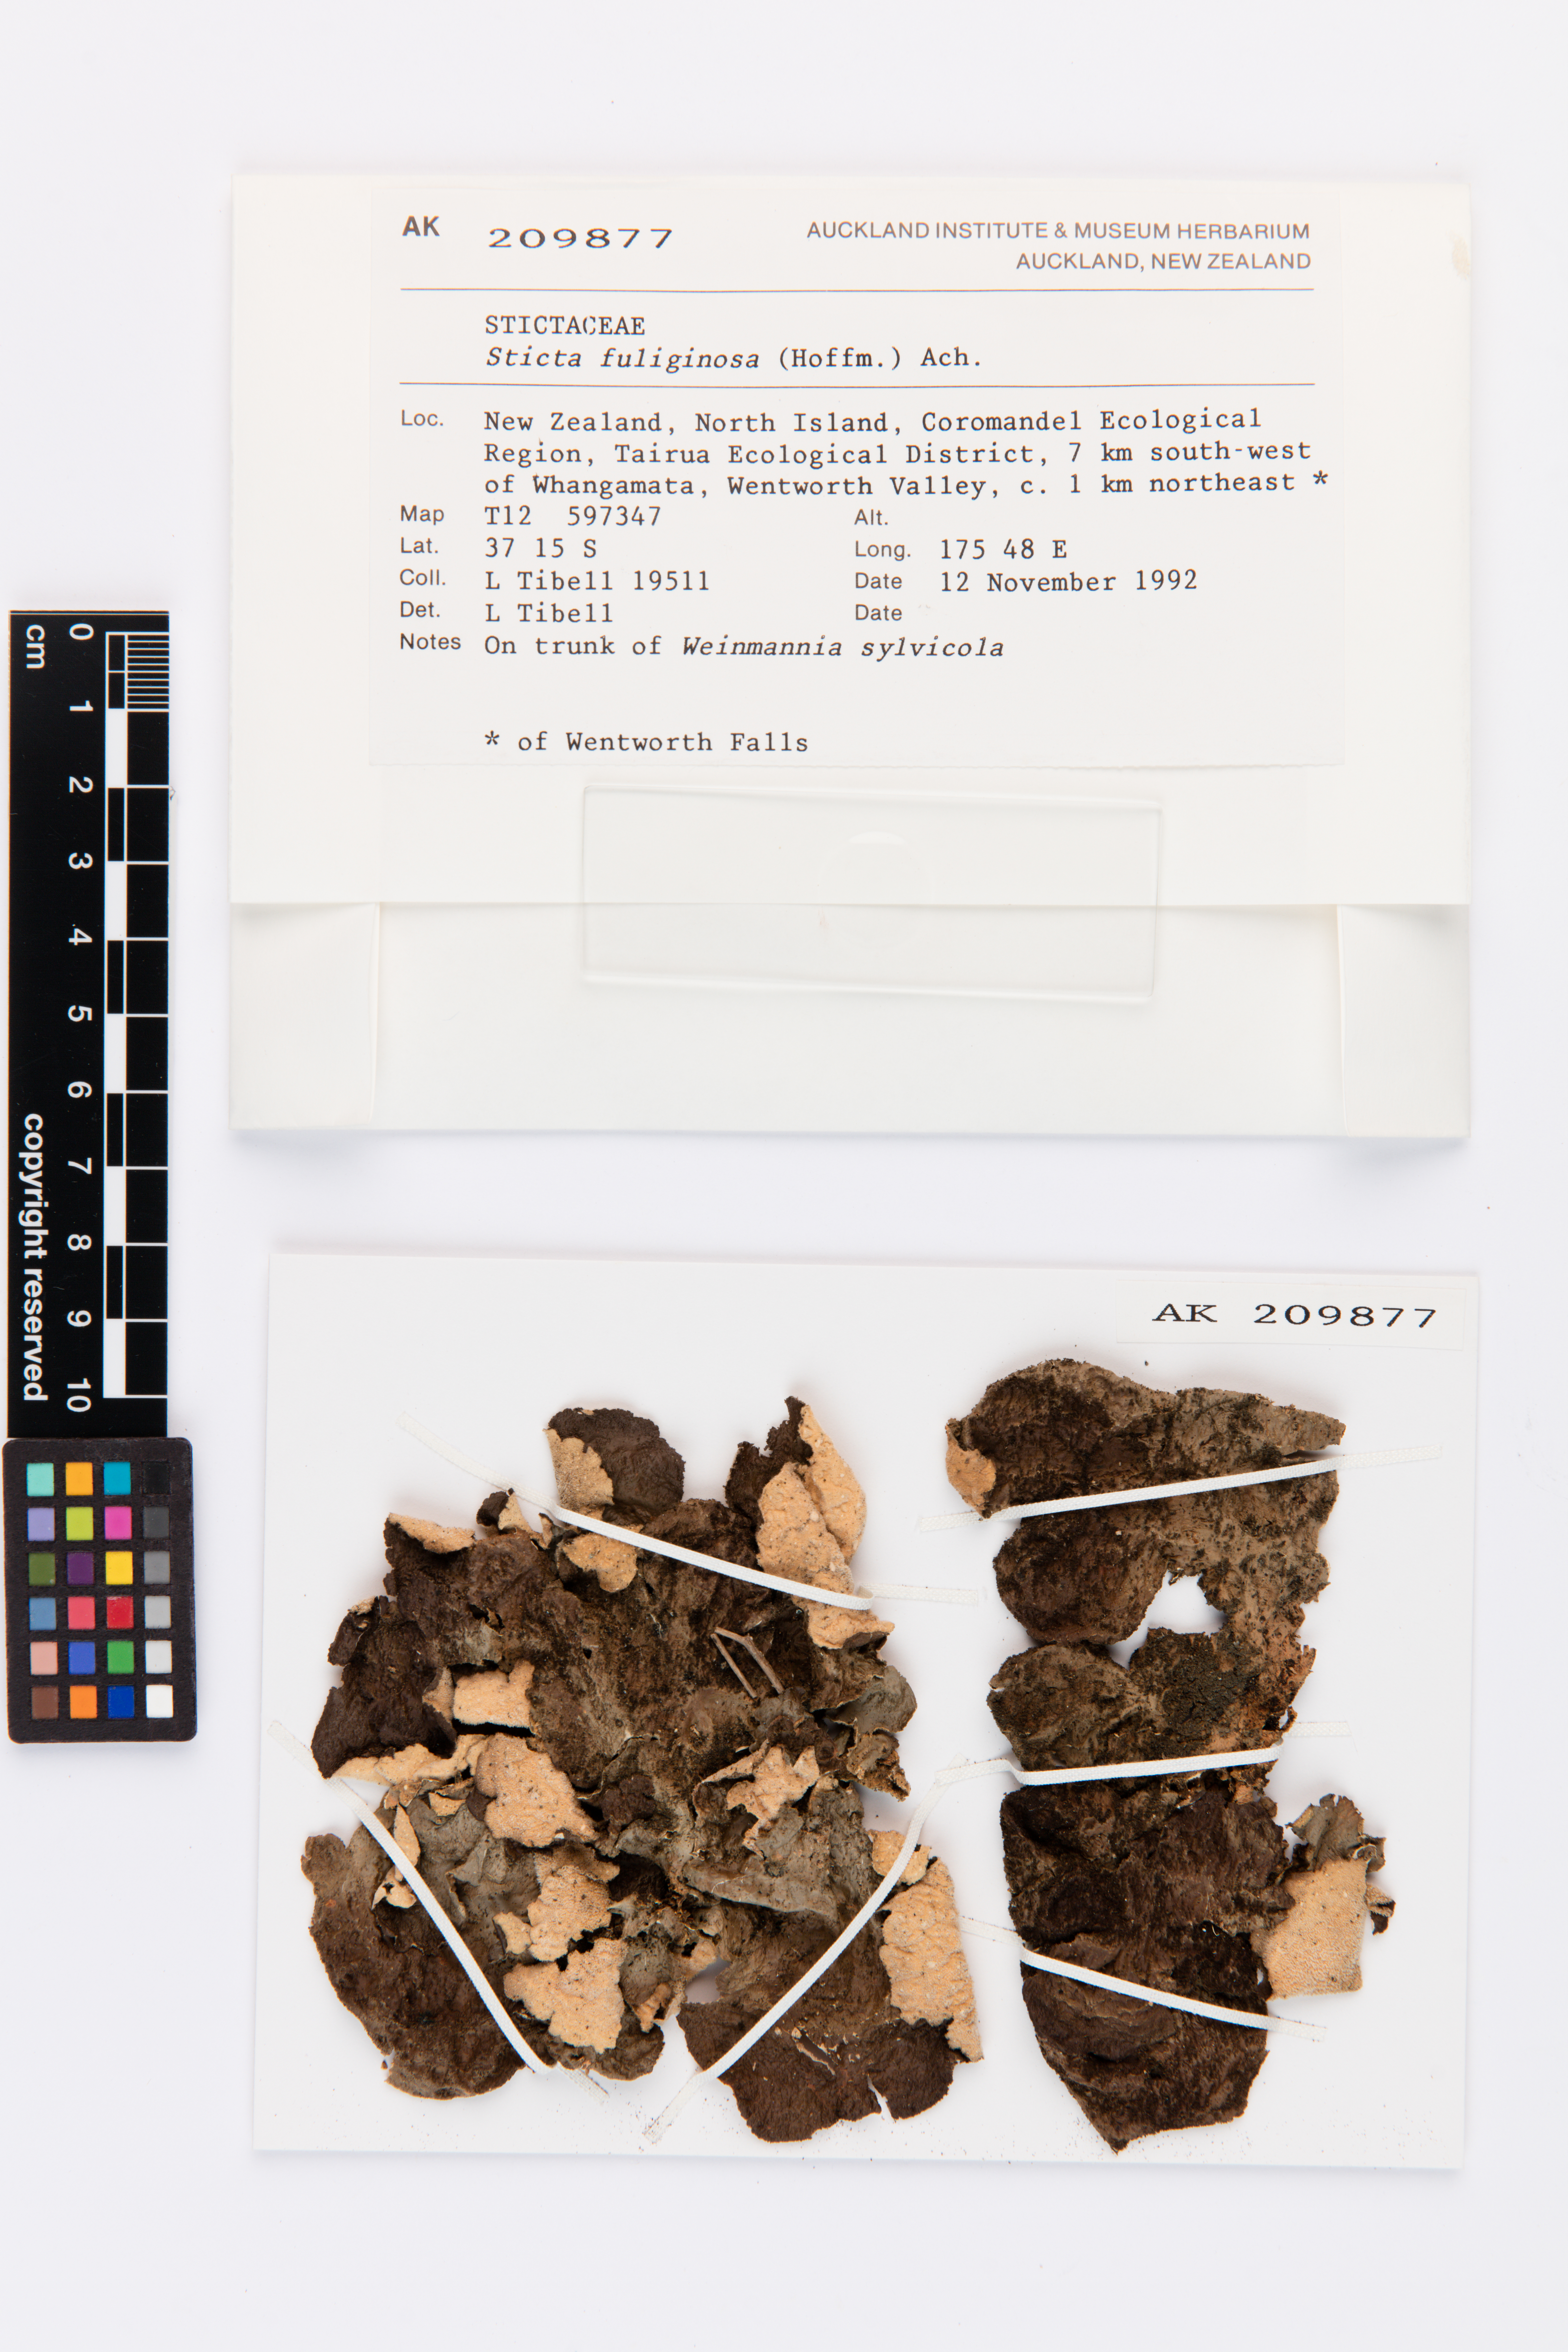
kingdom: Fungi
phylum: Ascomycota
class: Lecanoromycetes
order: Peltigerales
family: Lobariaceae
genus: Sticta
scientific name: Sticta fuliginosa
